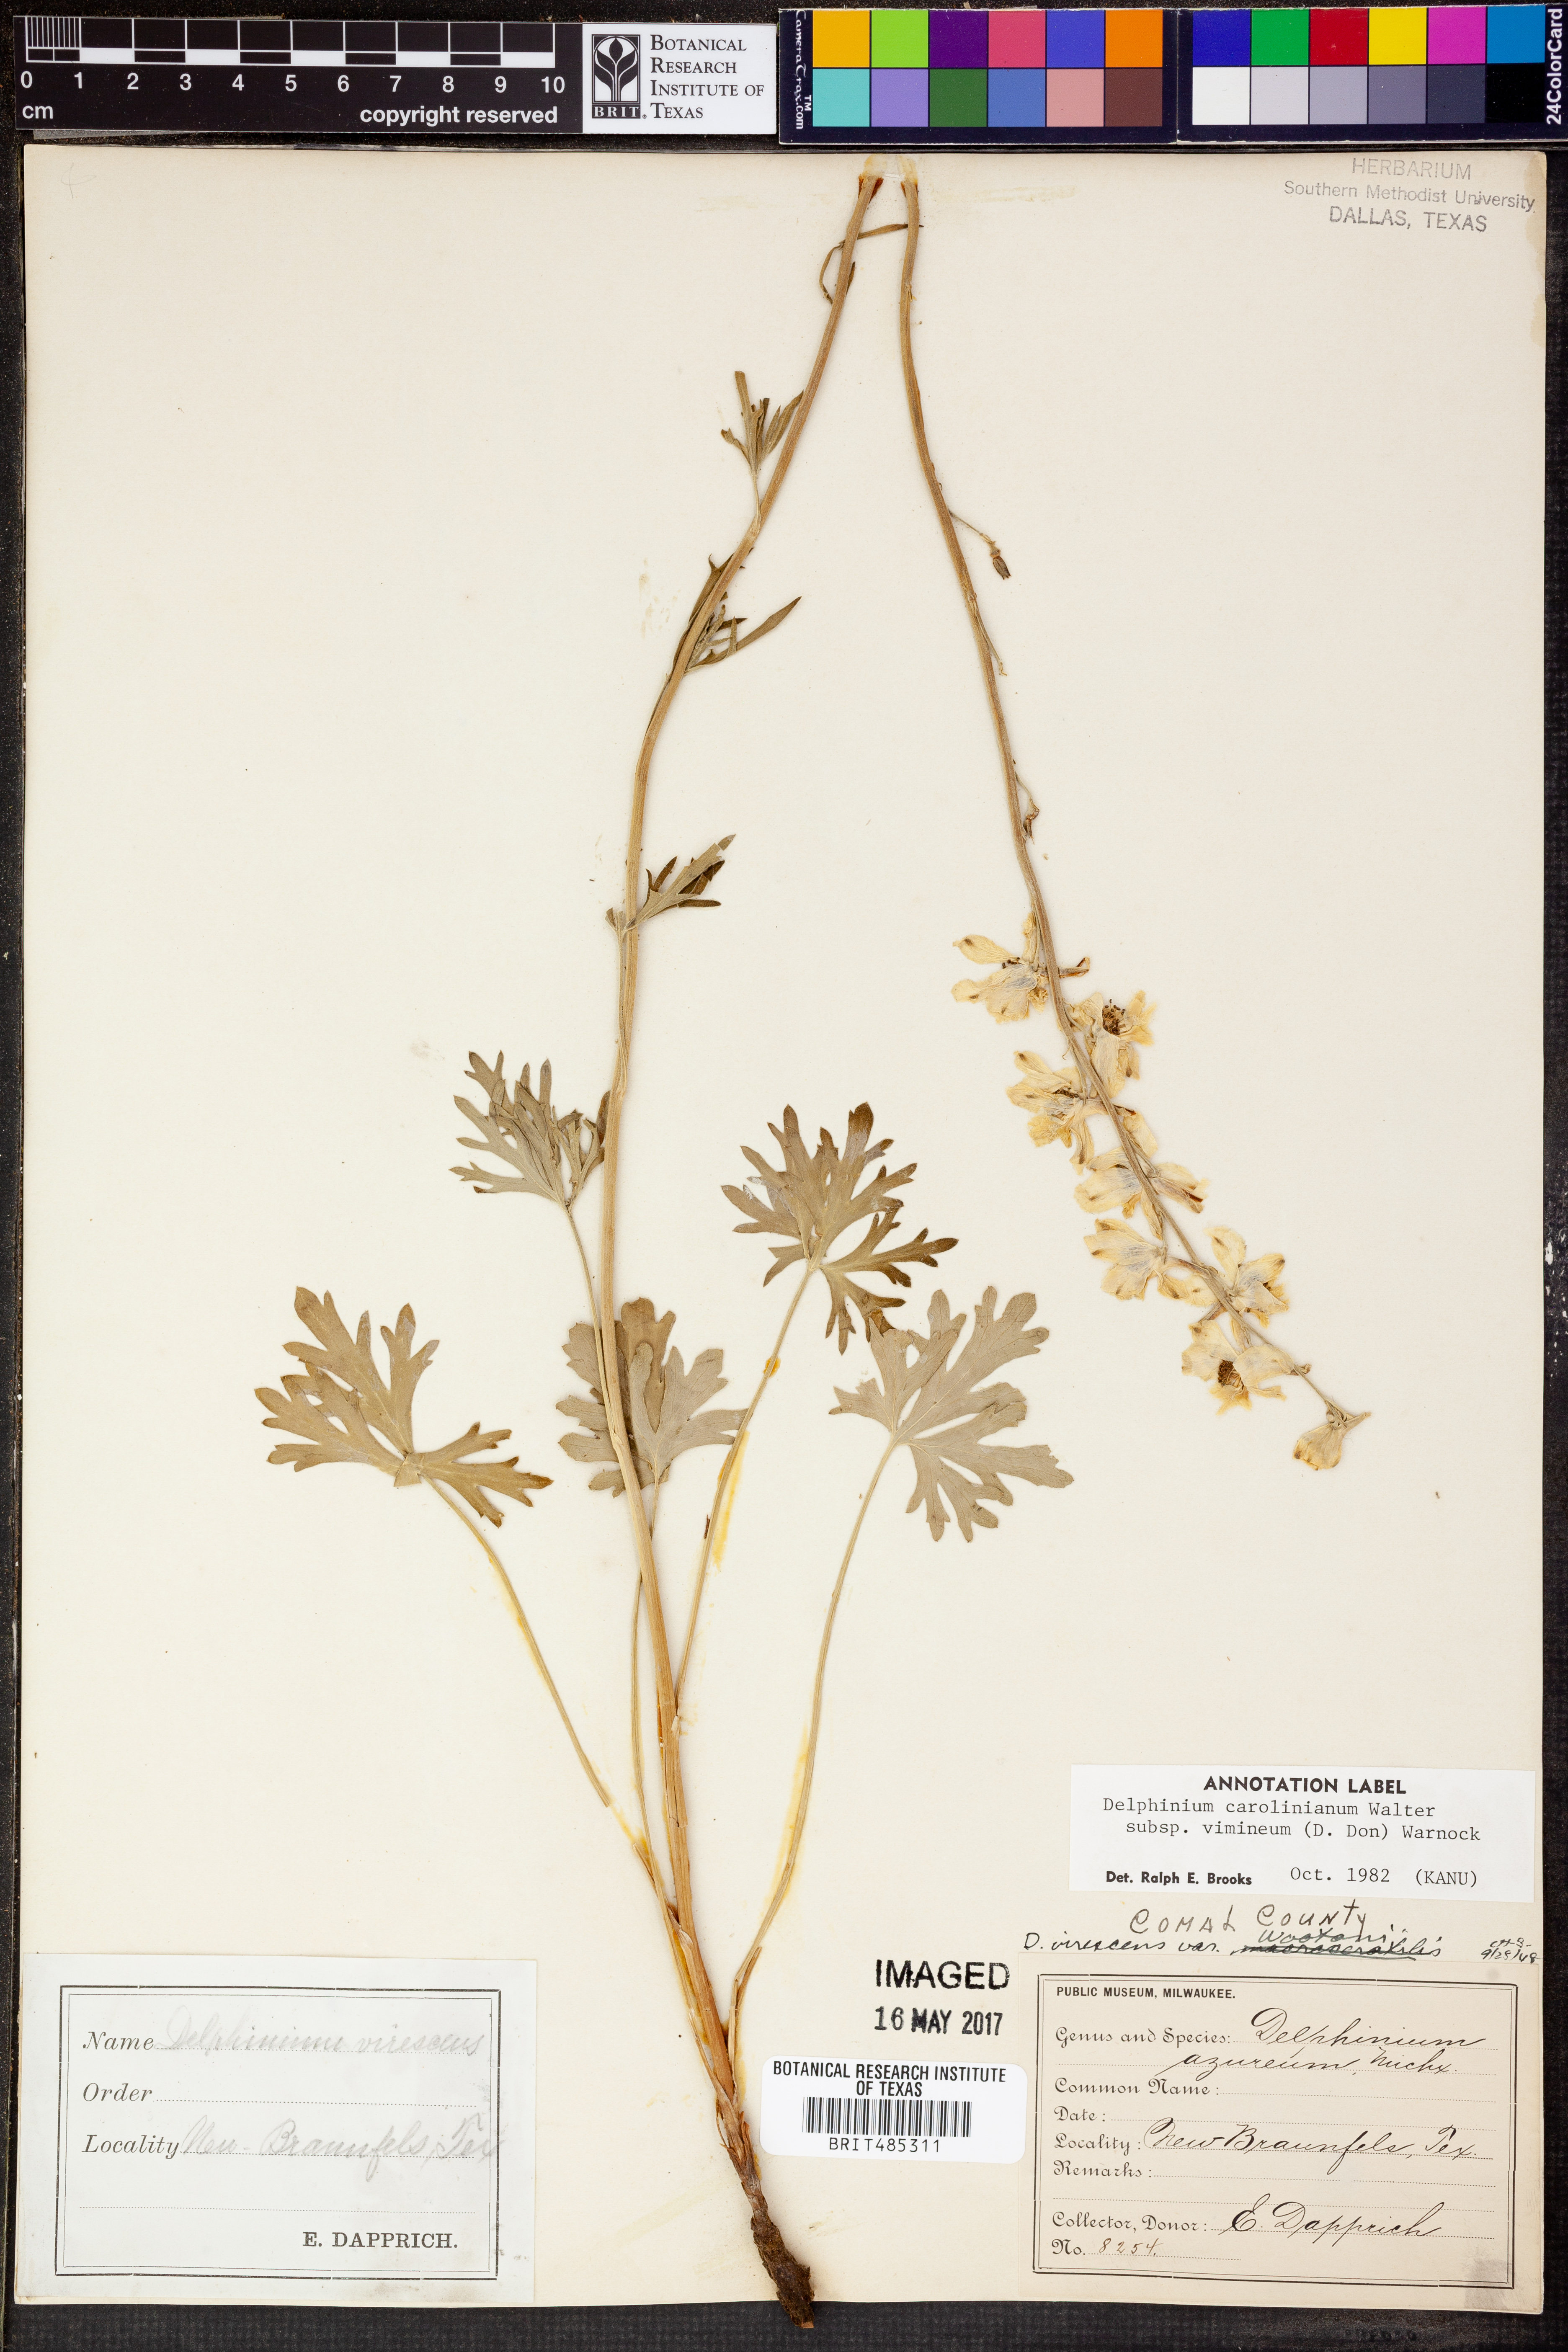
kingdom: Plantae
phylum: Tracheophyta
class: Magnoliopsida
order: Ranunculales
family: Ranunculaceae
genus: Delphinium
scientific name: Delphinium carolinianum
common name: Carolina larkspur
